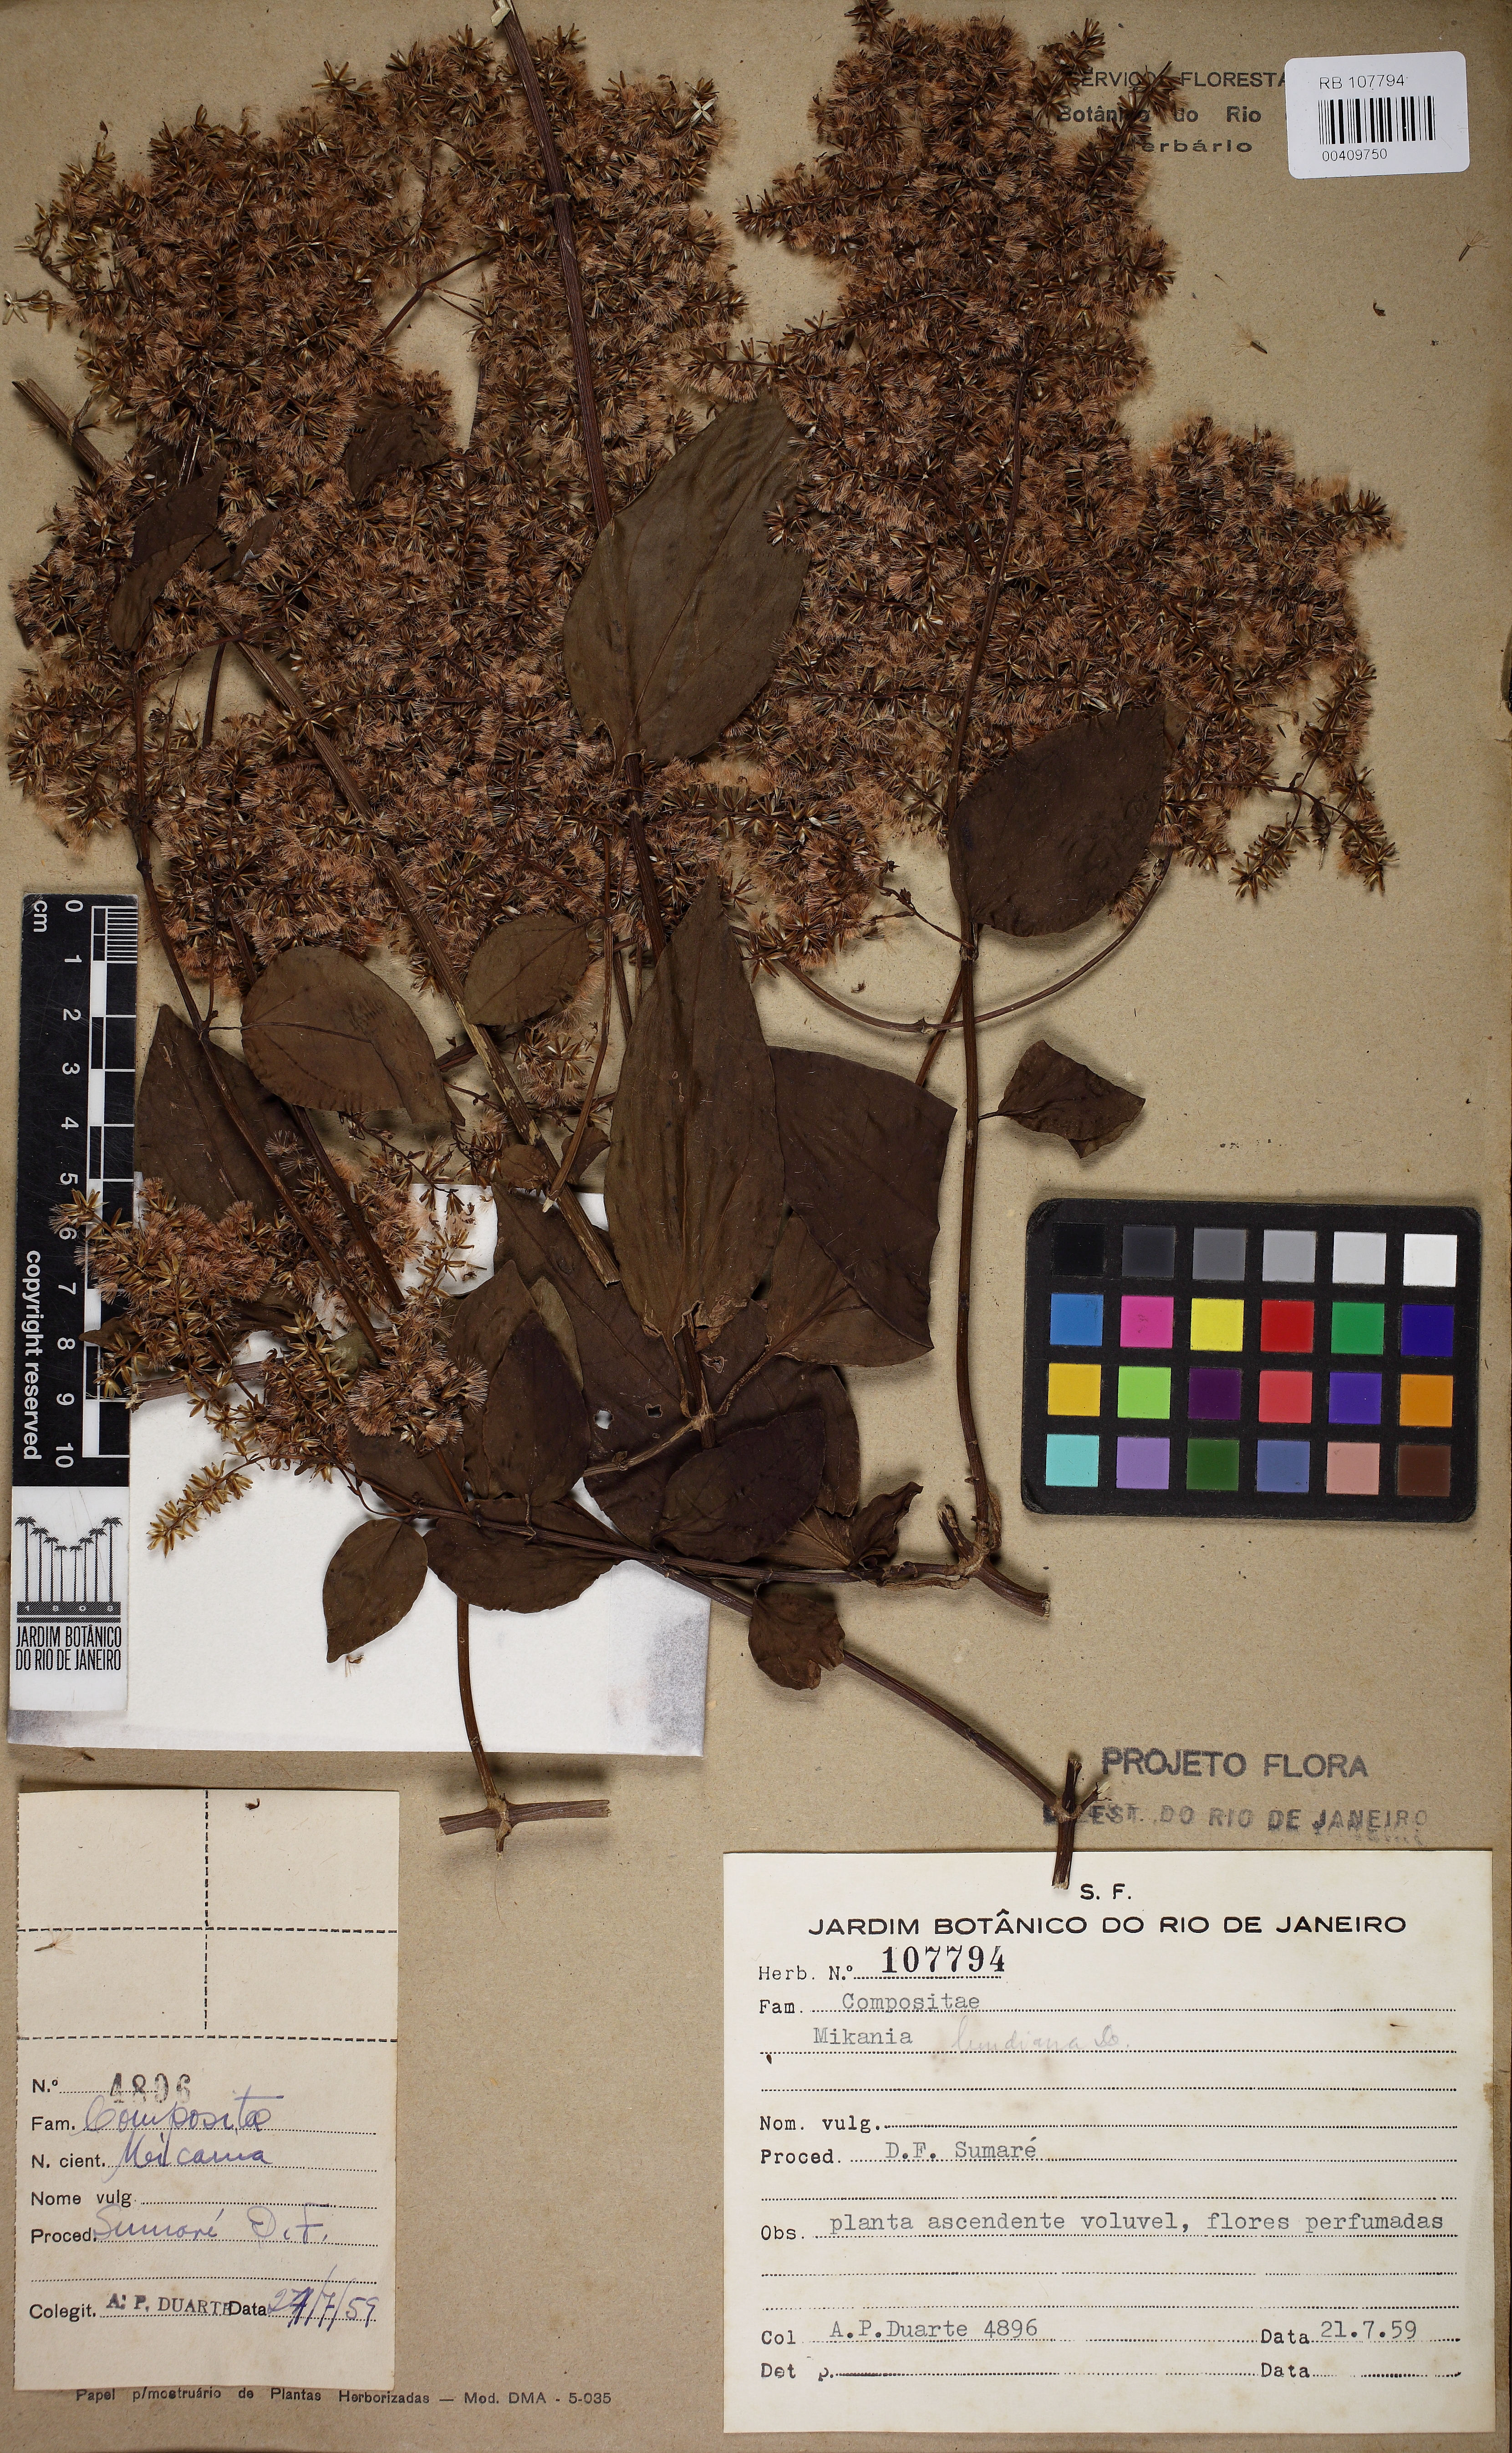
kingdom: Plantae
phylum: Tracheophyta
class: Magnoliopsida
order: Asterales
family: Asteraceae
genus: Mikania
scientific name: Mikania lundiana
